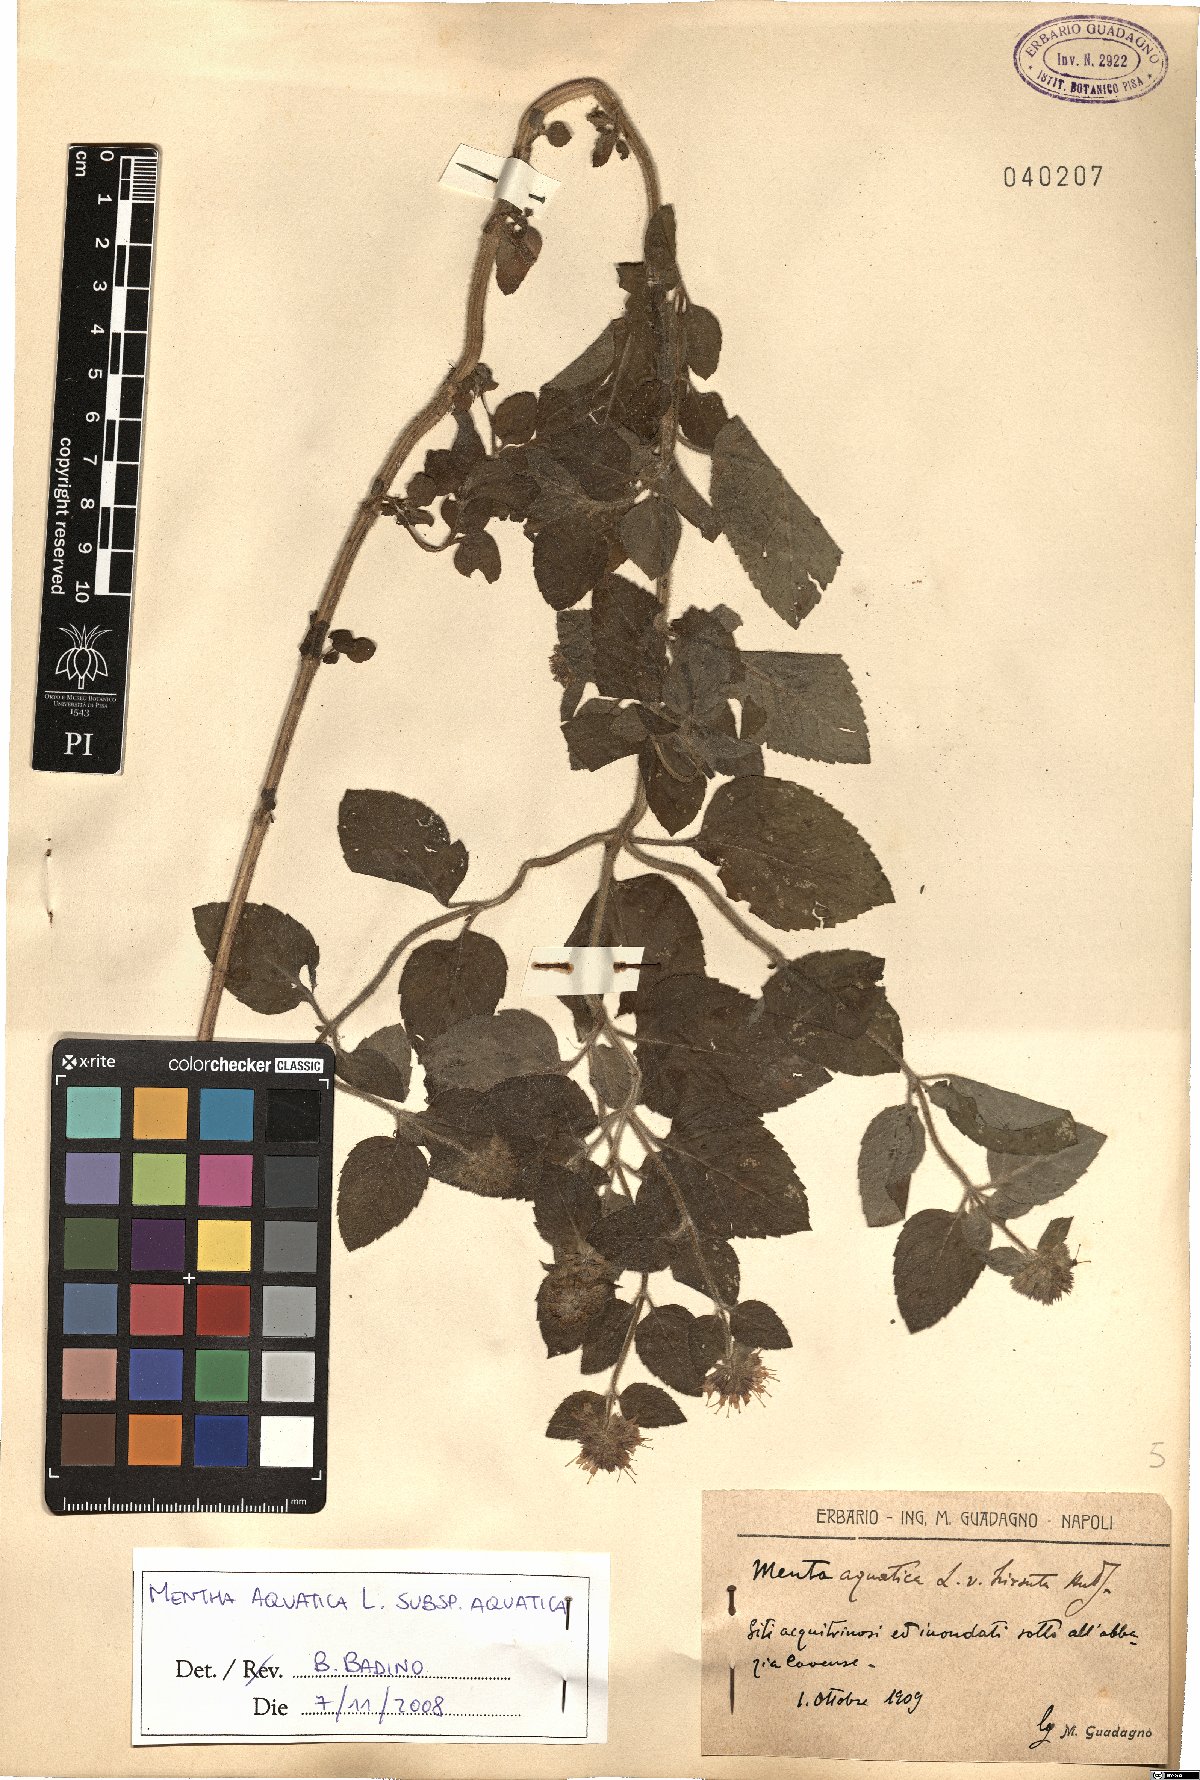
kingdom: Plantae
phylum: Tracheophyta
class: Magnoliopsida
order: Lamiales
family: Lamiaceae
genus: Mentha
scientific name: Mentha aquatica
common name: Water mint
